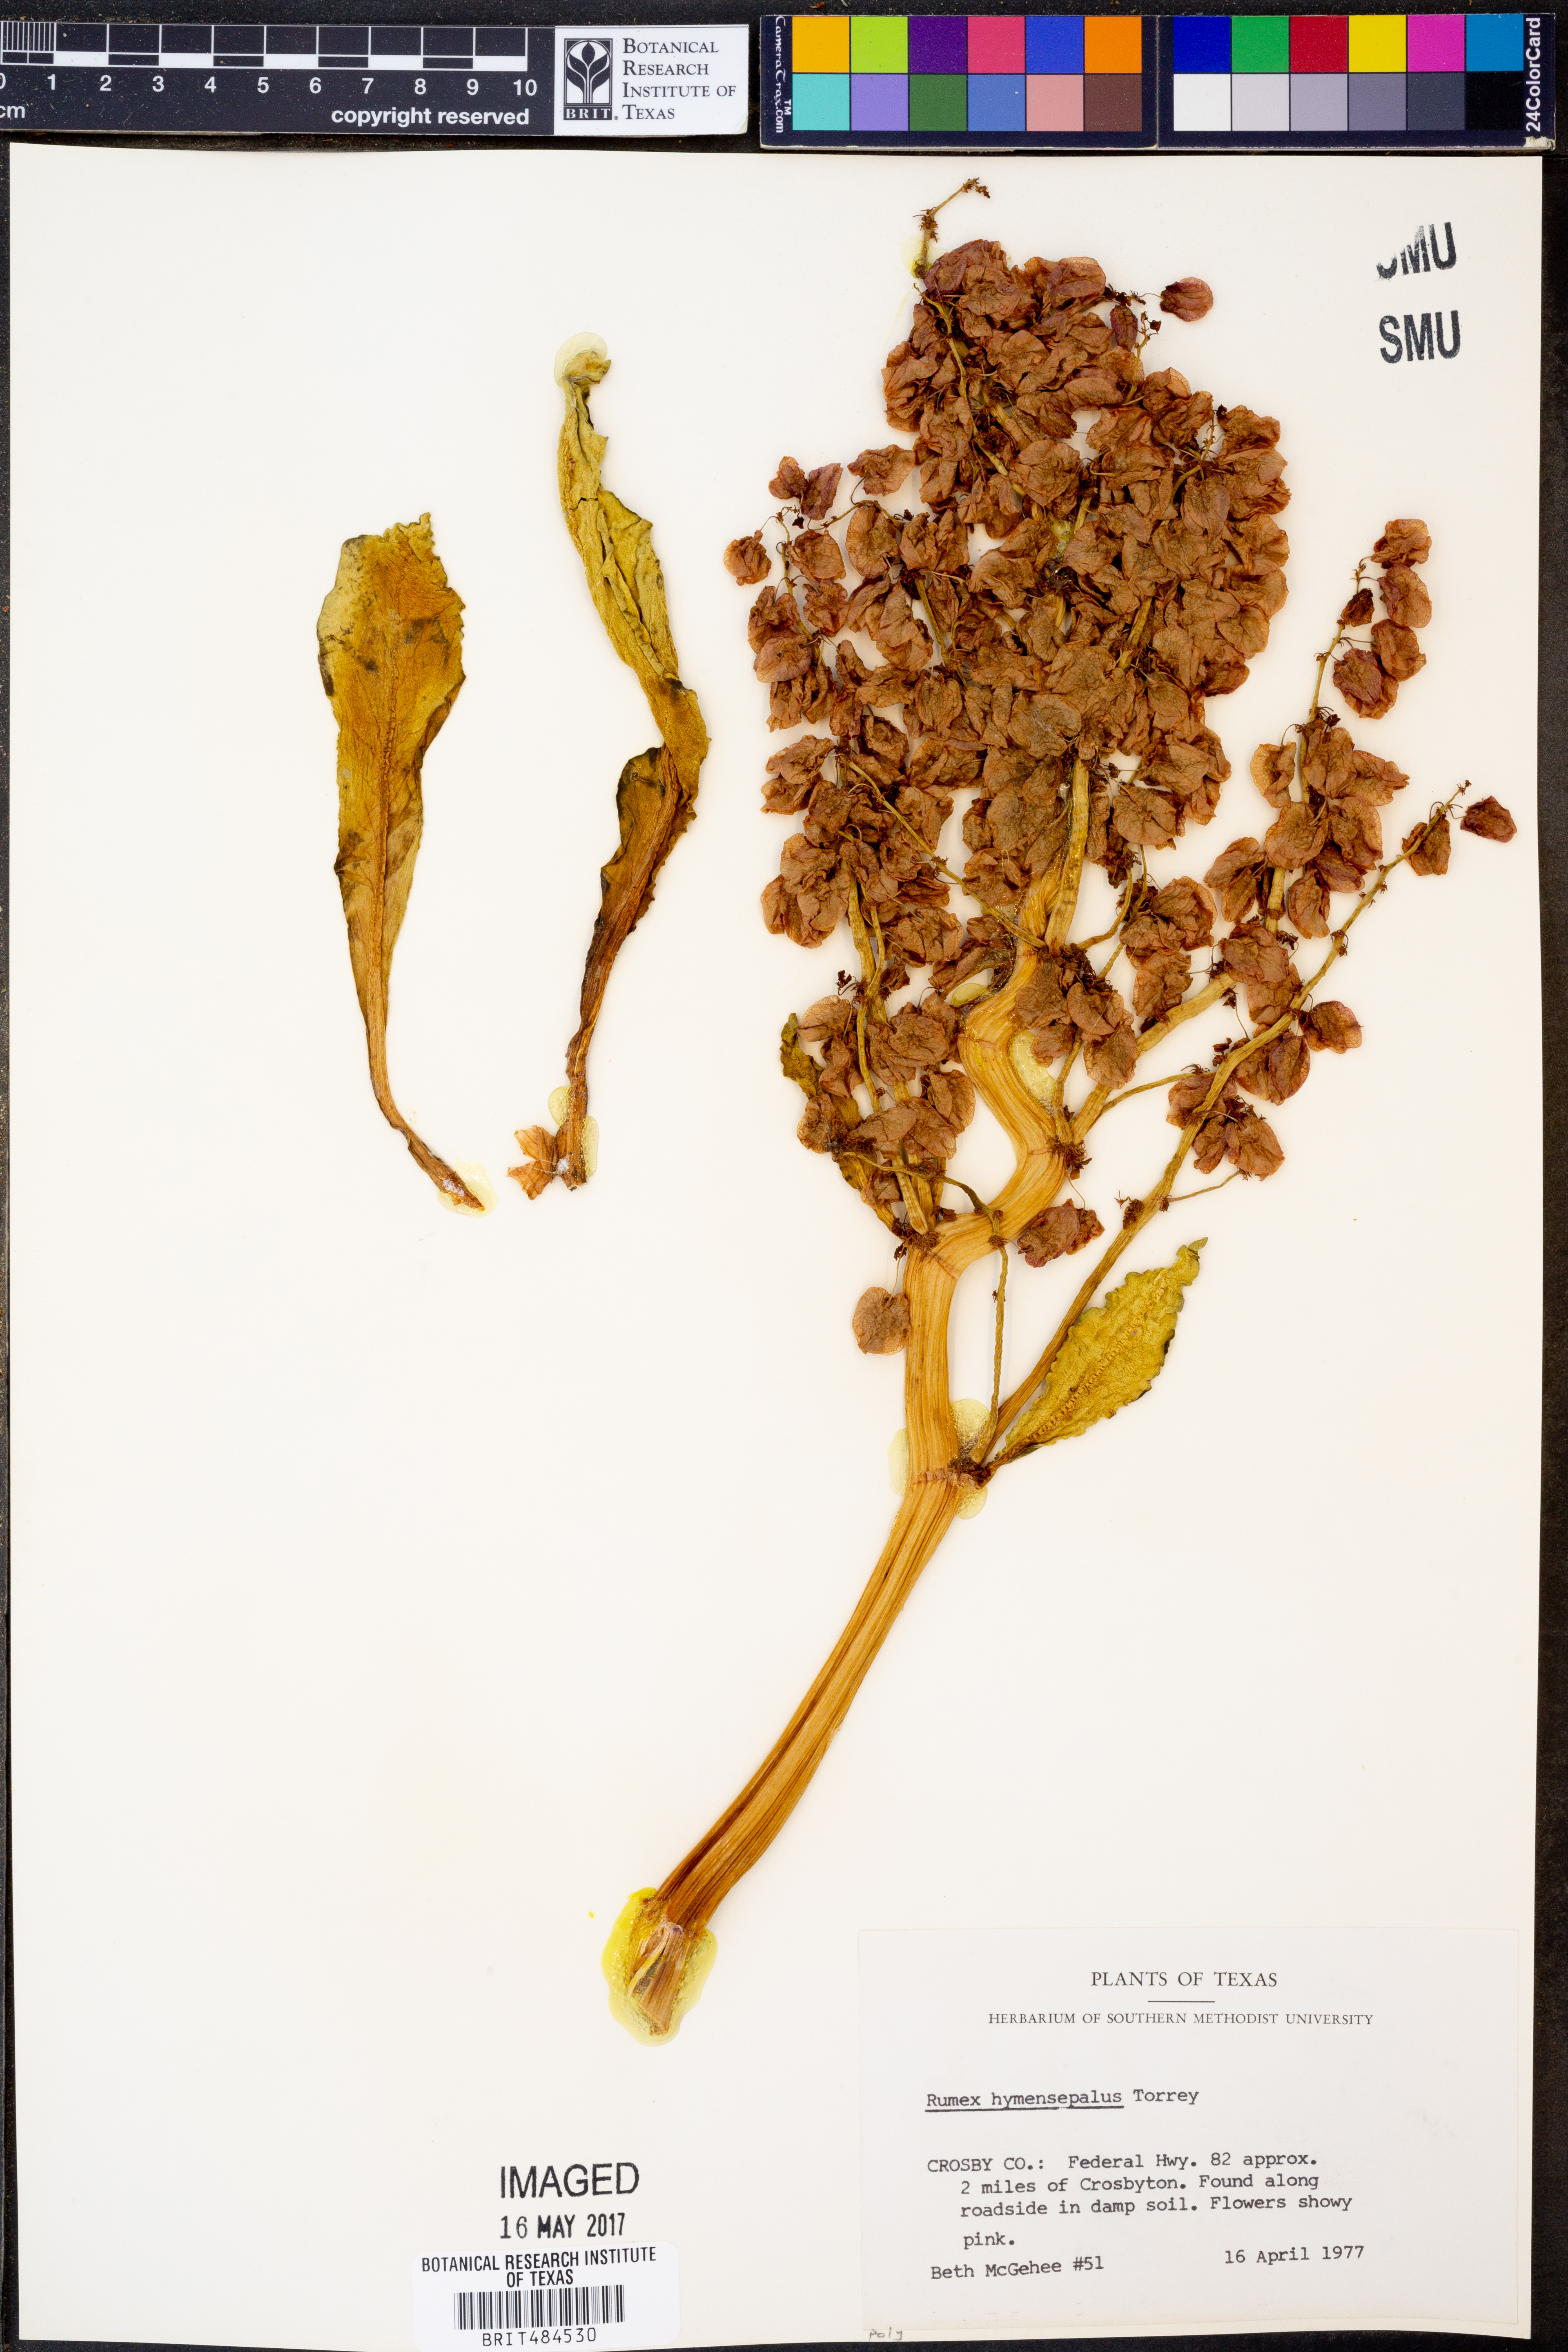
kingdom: Plantae
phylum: Tracheophyta
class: Magnoliopsida
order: Caryophyllales
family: Polygonaceae
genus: Rumex
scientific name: Rumex hymenosepalus
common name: Ganagra
